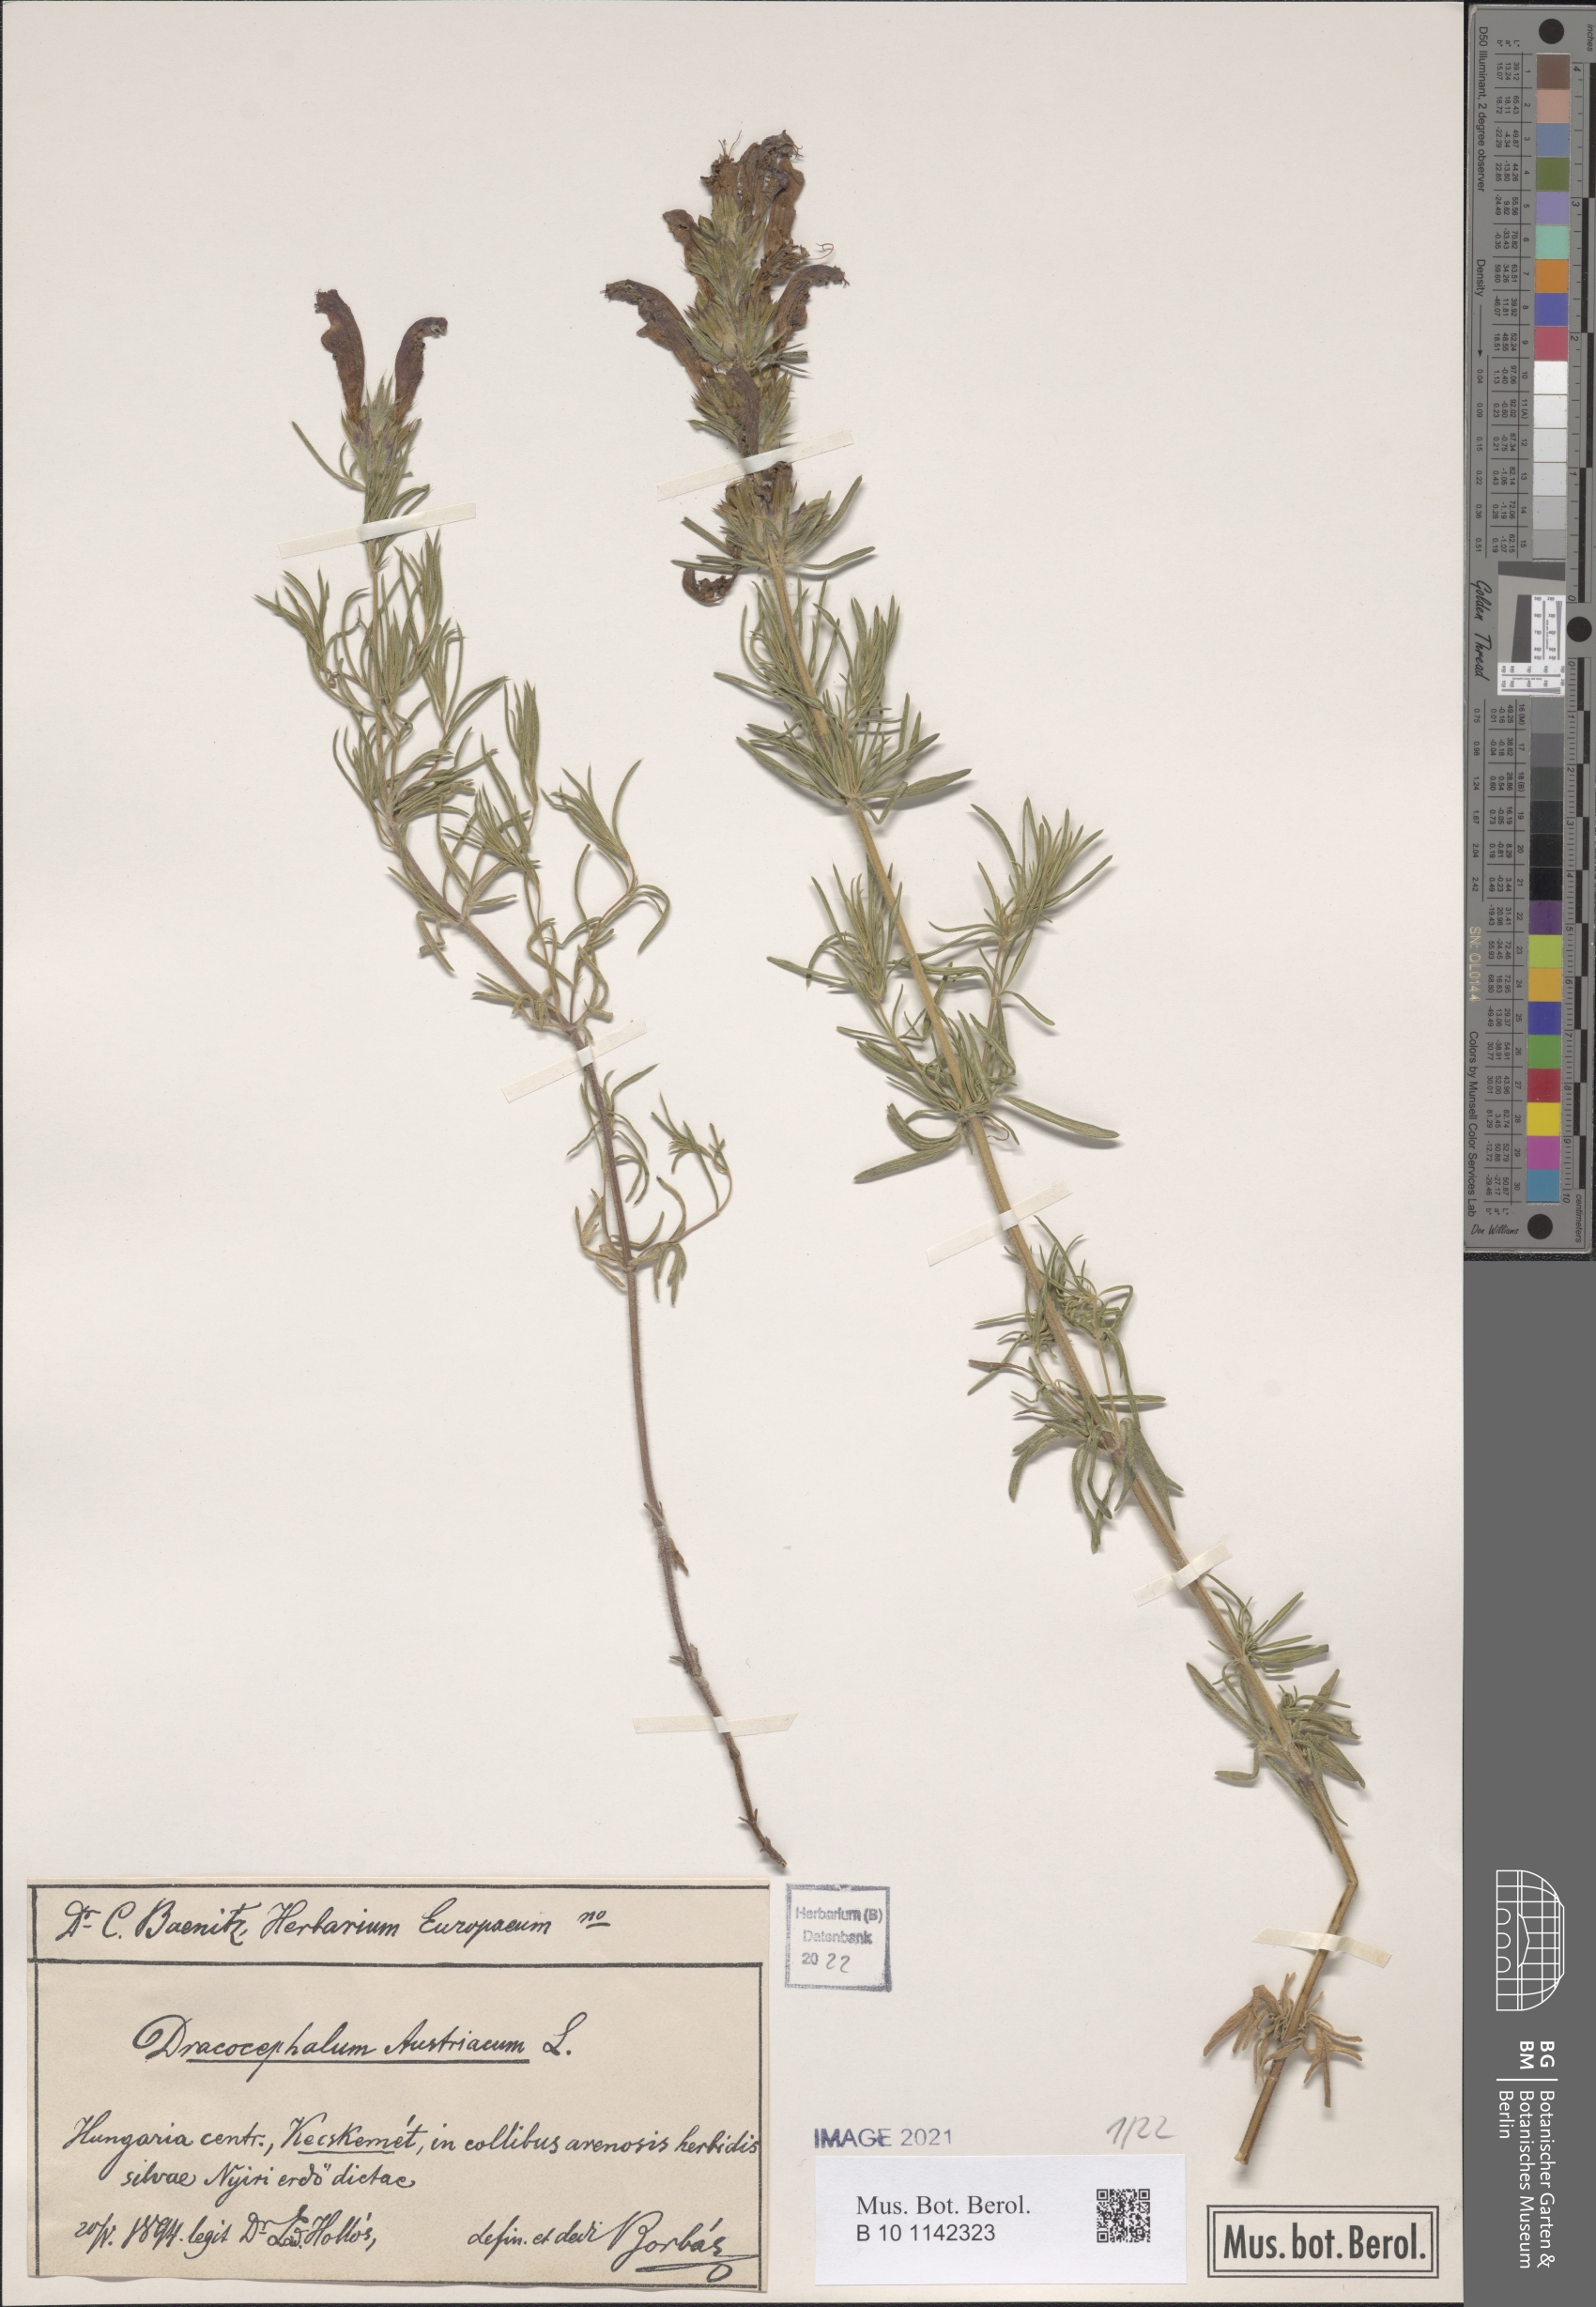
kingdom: Plantae
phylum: Tracheophyta
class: Magnoliopsida
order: Lamiales
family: Lamiaceae
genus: Dracocephalum
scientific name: Dracocephalum austriacum
